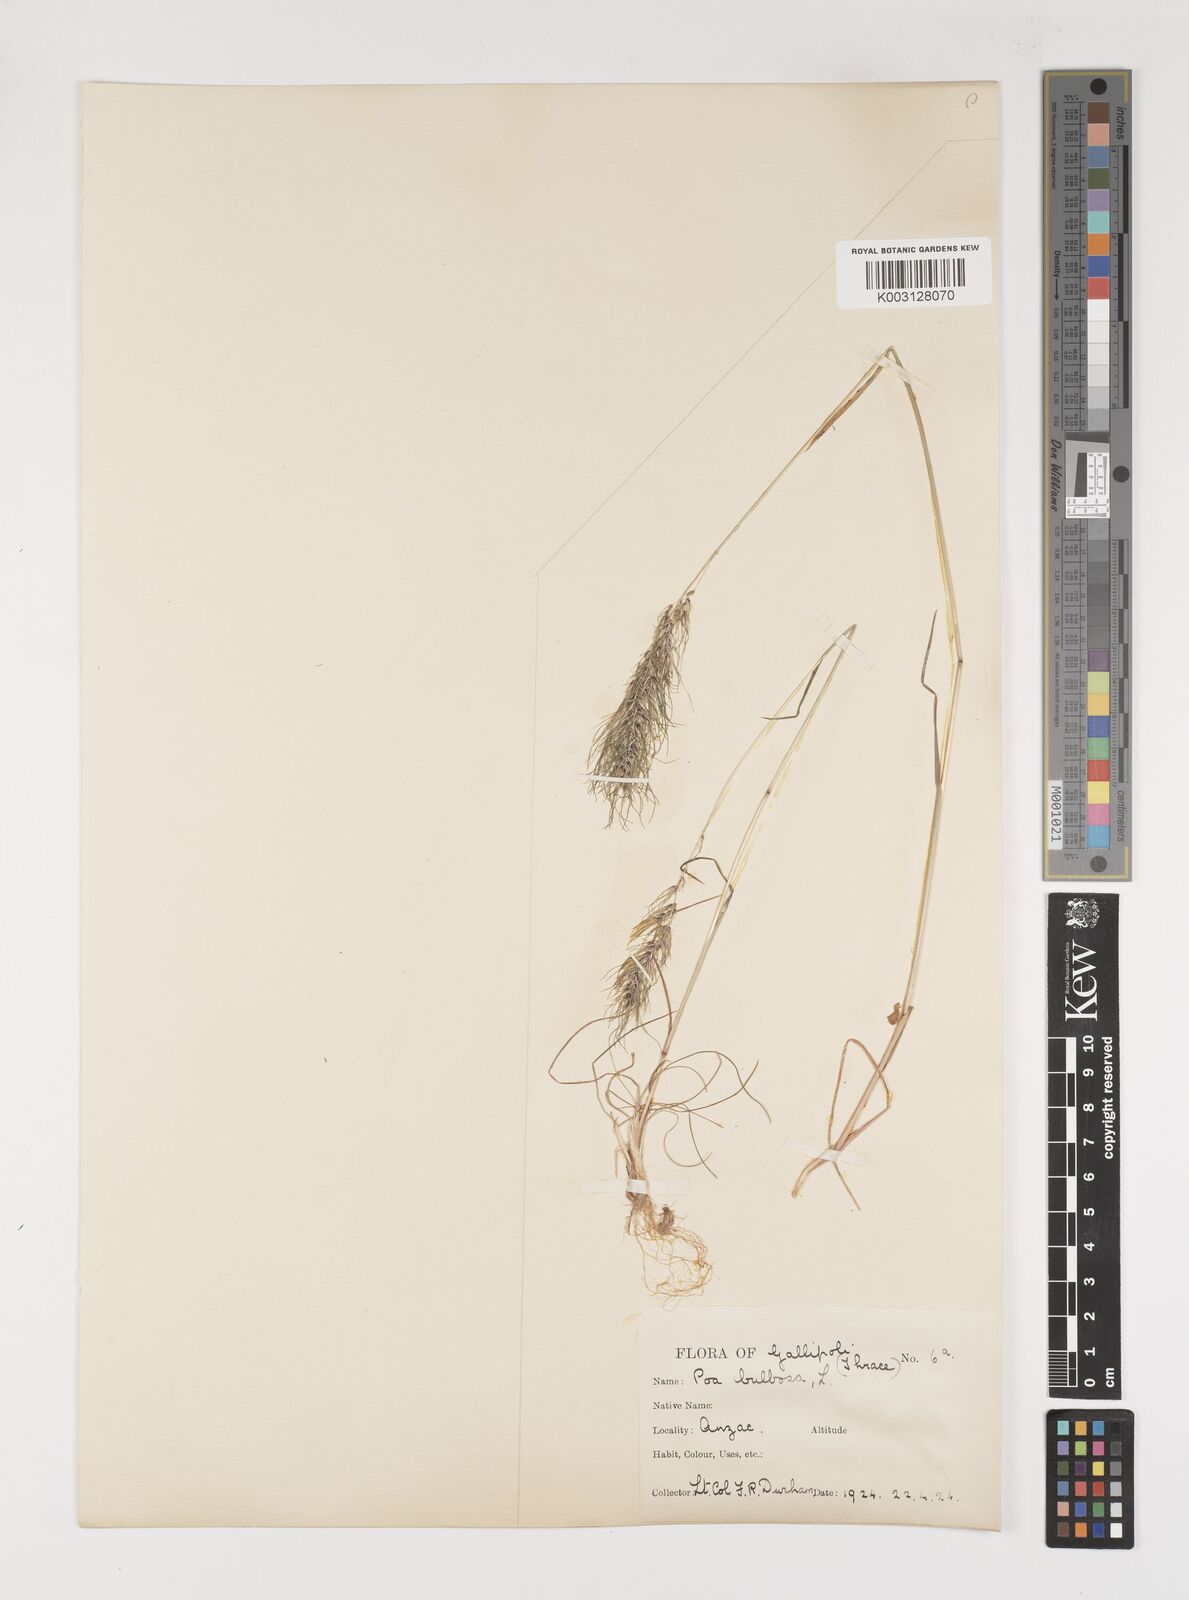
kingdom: Plantae
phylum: Tracheophyta
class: Liliopsida
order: Poales
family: Poaceae
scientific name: Poaceae
